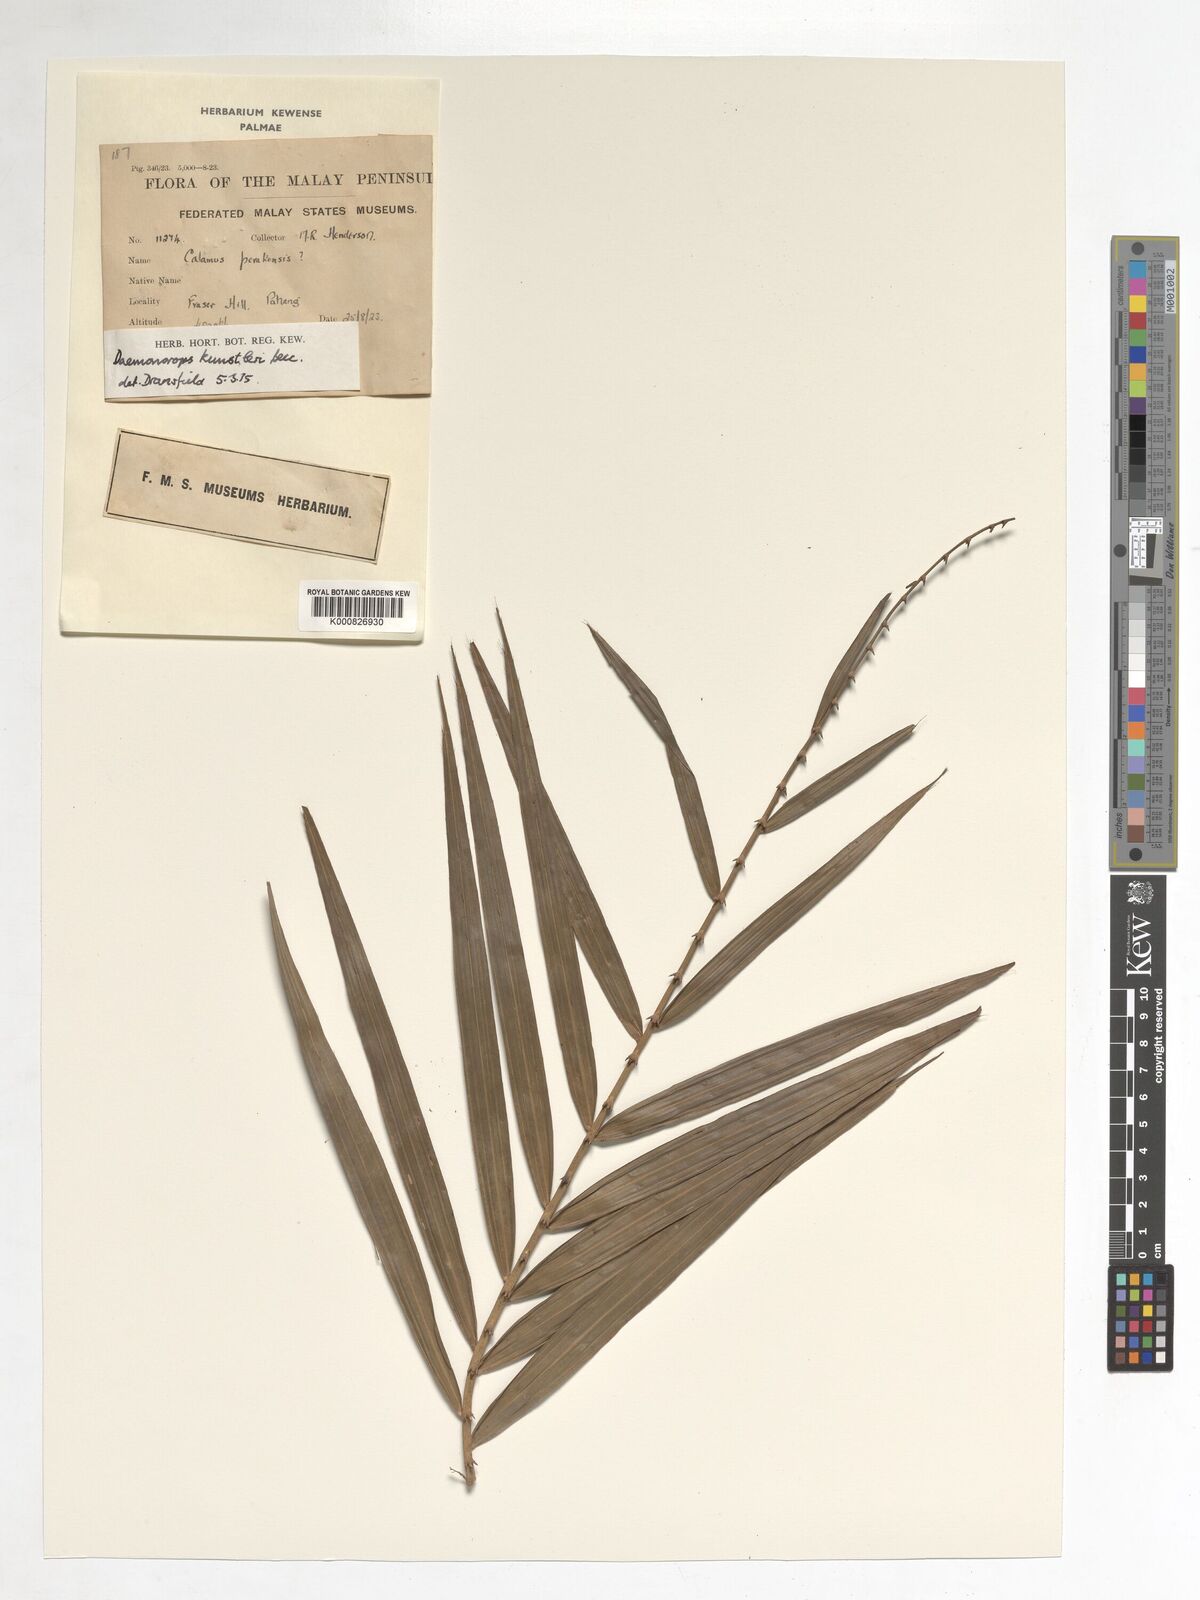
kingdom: Plantae
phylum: Tracheophyta
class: Liliopsida
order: Arecales
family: Arecaceae
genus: Calamus
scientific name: Calamus kunstleri
